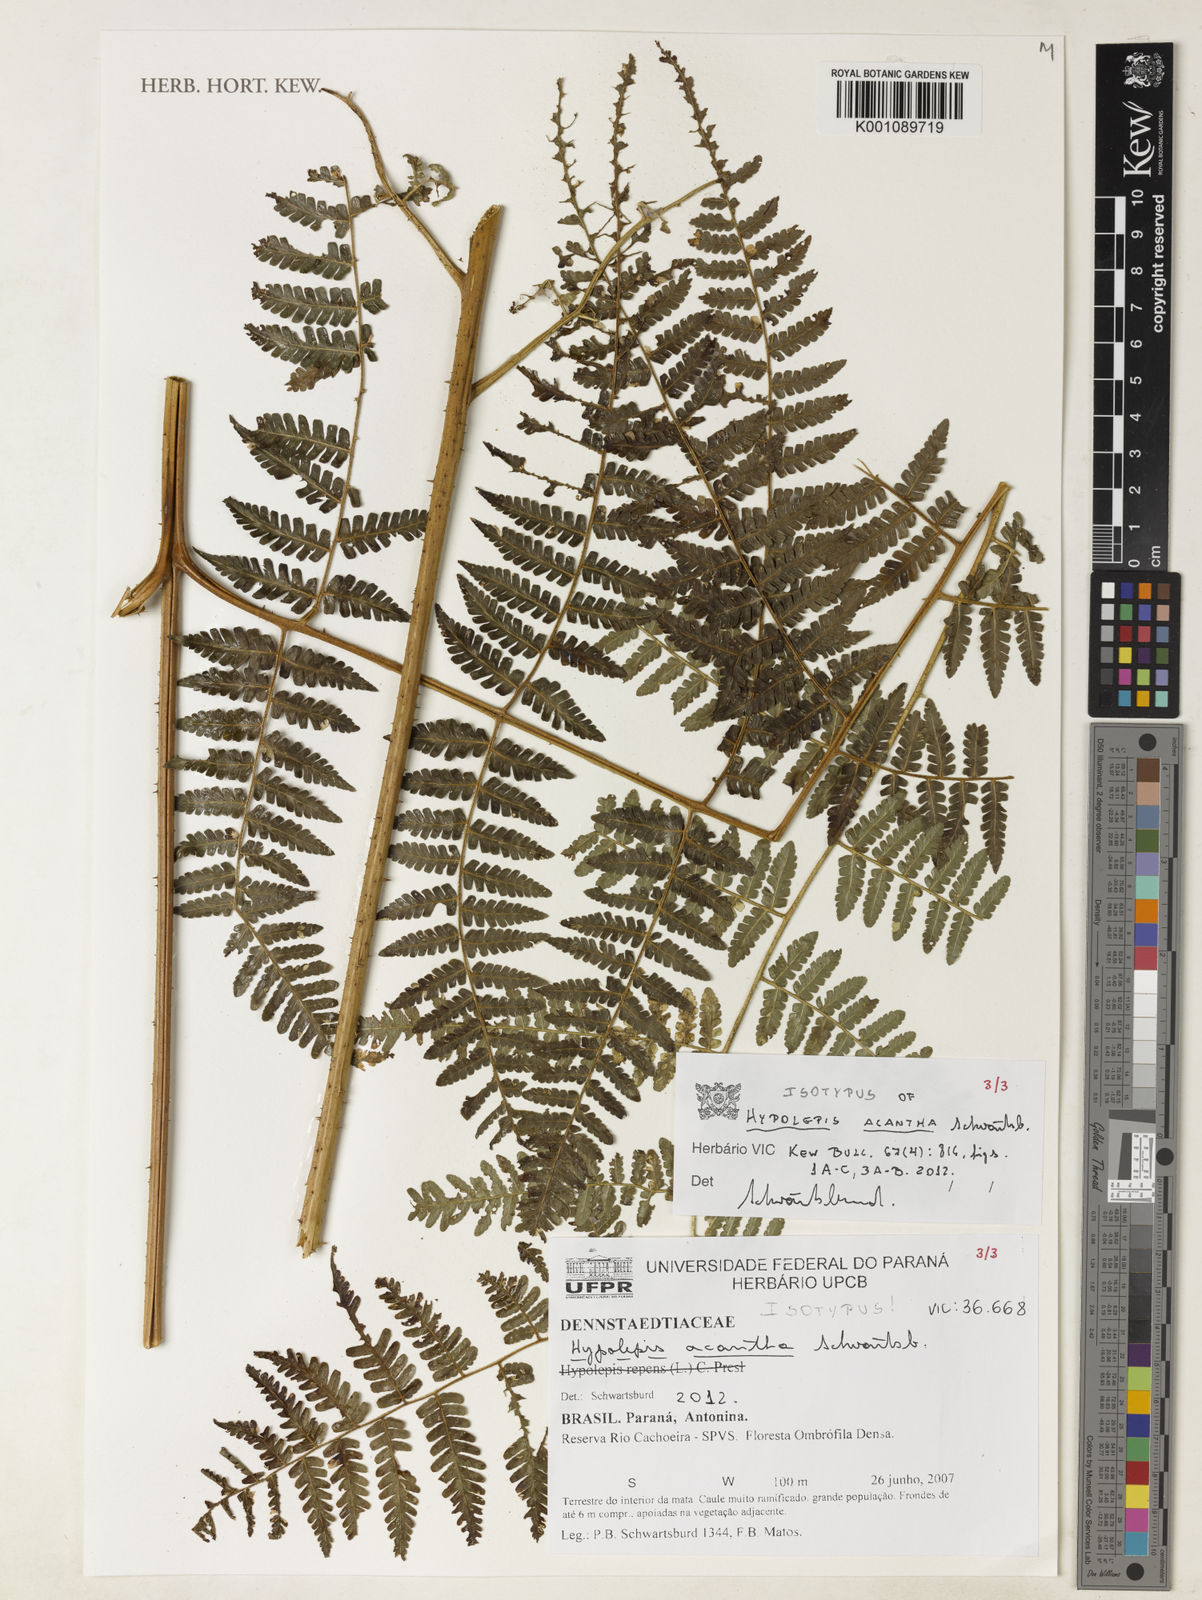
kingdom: Plantae
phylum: Tracheophyta
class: Polypodiopsida
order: Polypodiales
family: Dennstaedtiaceae
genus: Hypolepis
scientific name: Hypolepis acantha
